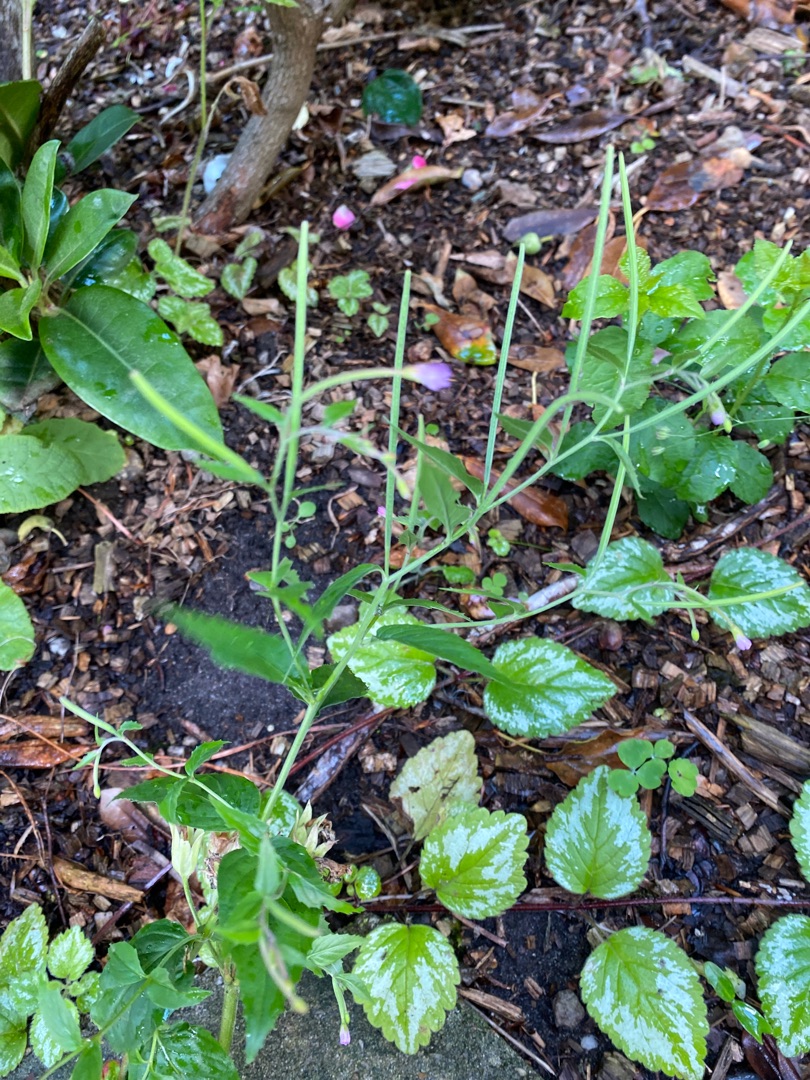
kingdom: Plantae
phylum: Tracheophyta
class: Magnoliopsida
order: Myrtales
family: Onagraceae
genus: Epilobium
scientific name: Epilobium
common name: Dueurtslægten
